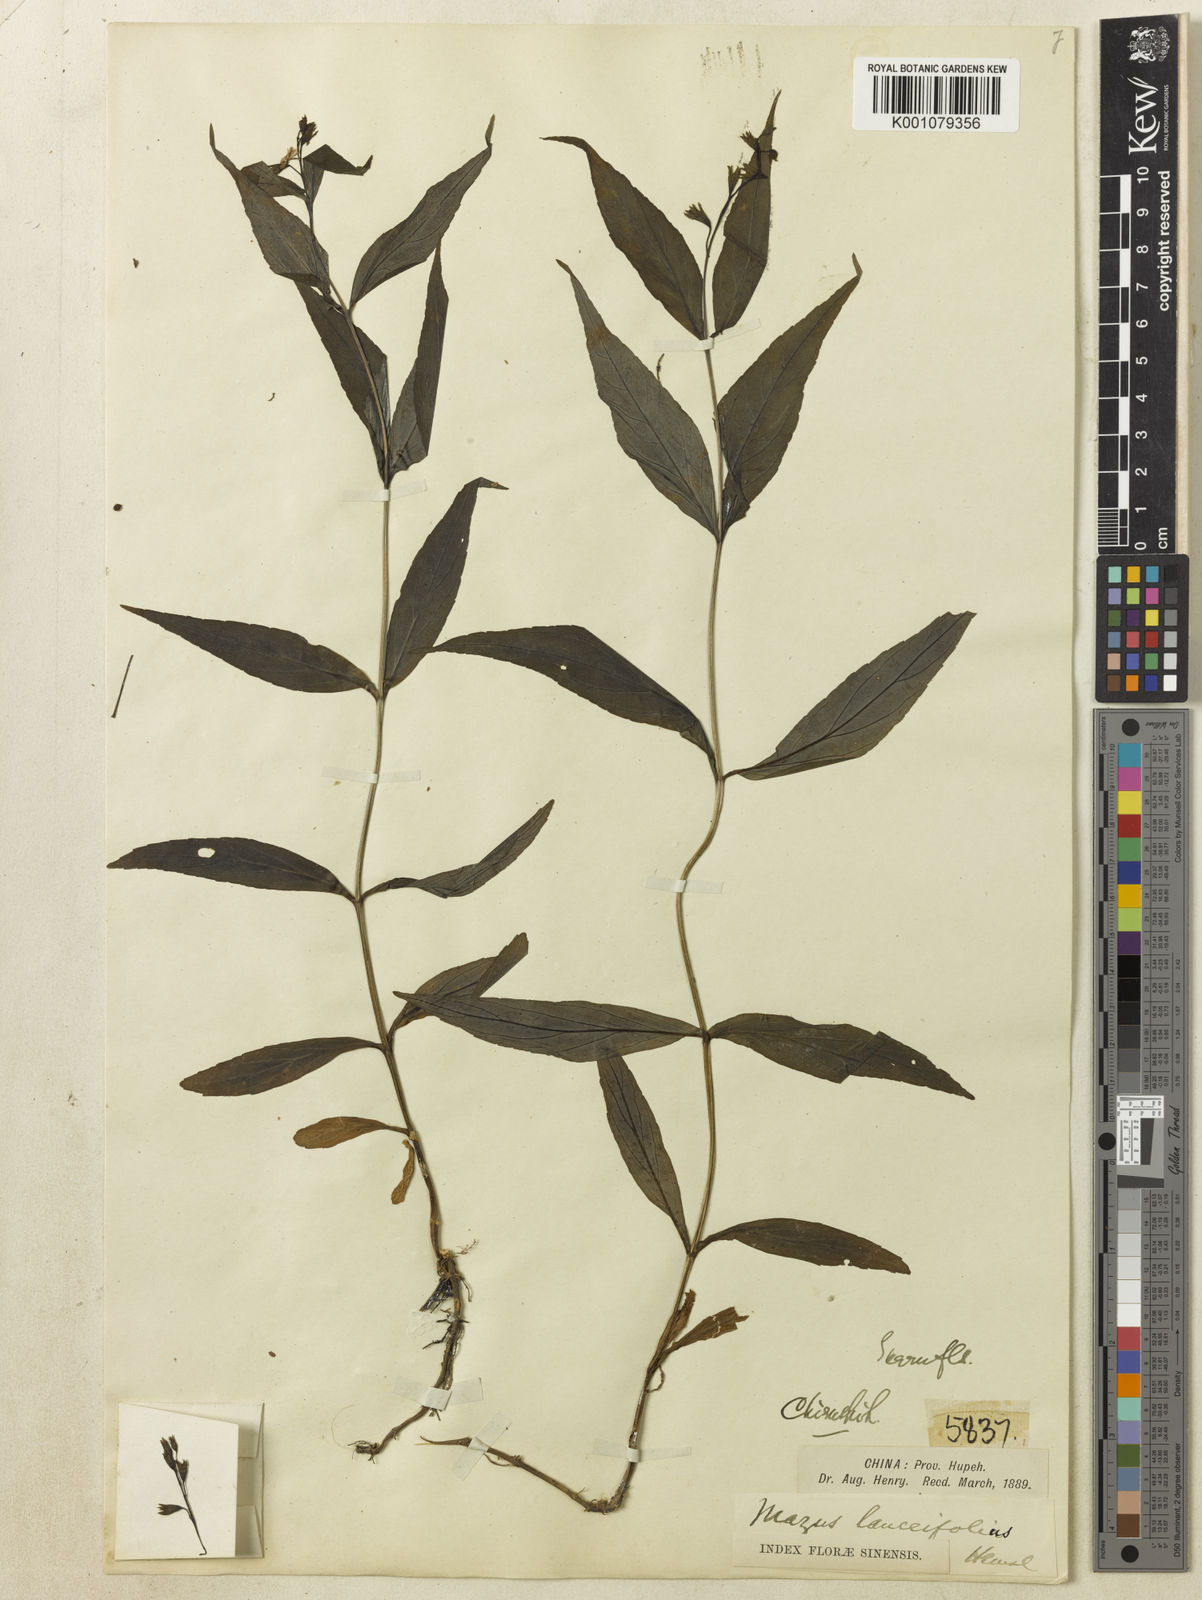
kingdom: Plantae
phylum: Tracheophyta
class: Magnoliopsida
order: Lamiales
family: Mazaceae
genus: Mazus
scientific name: Mazus
